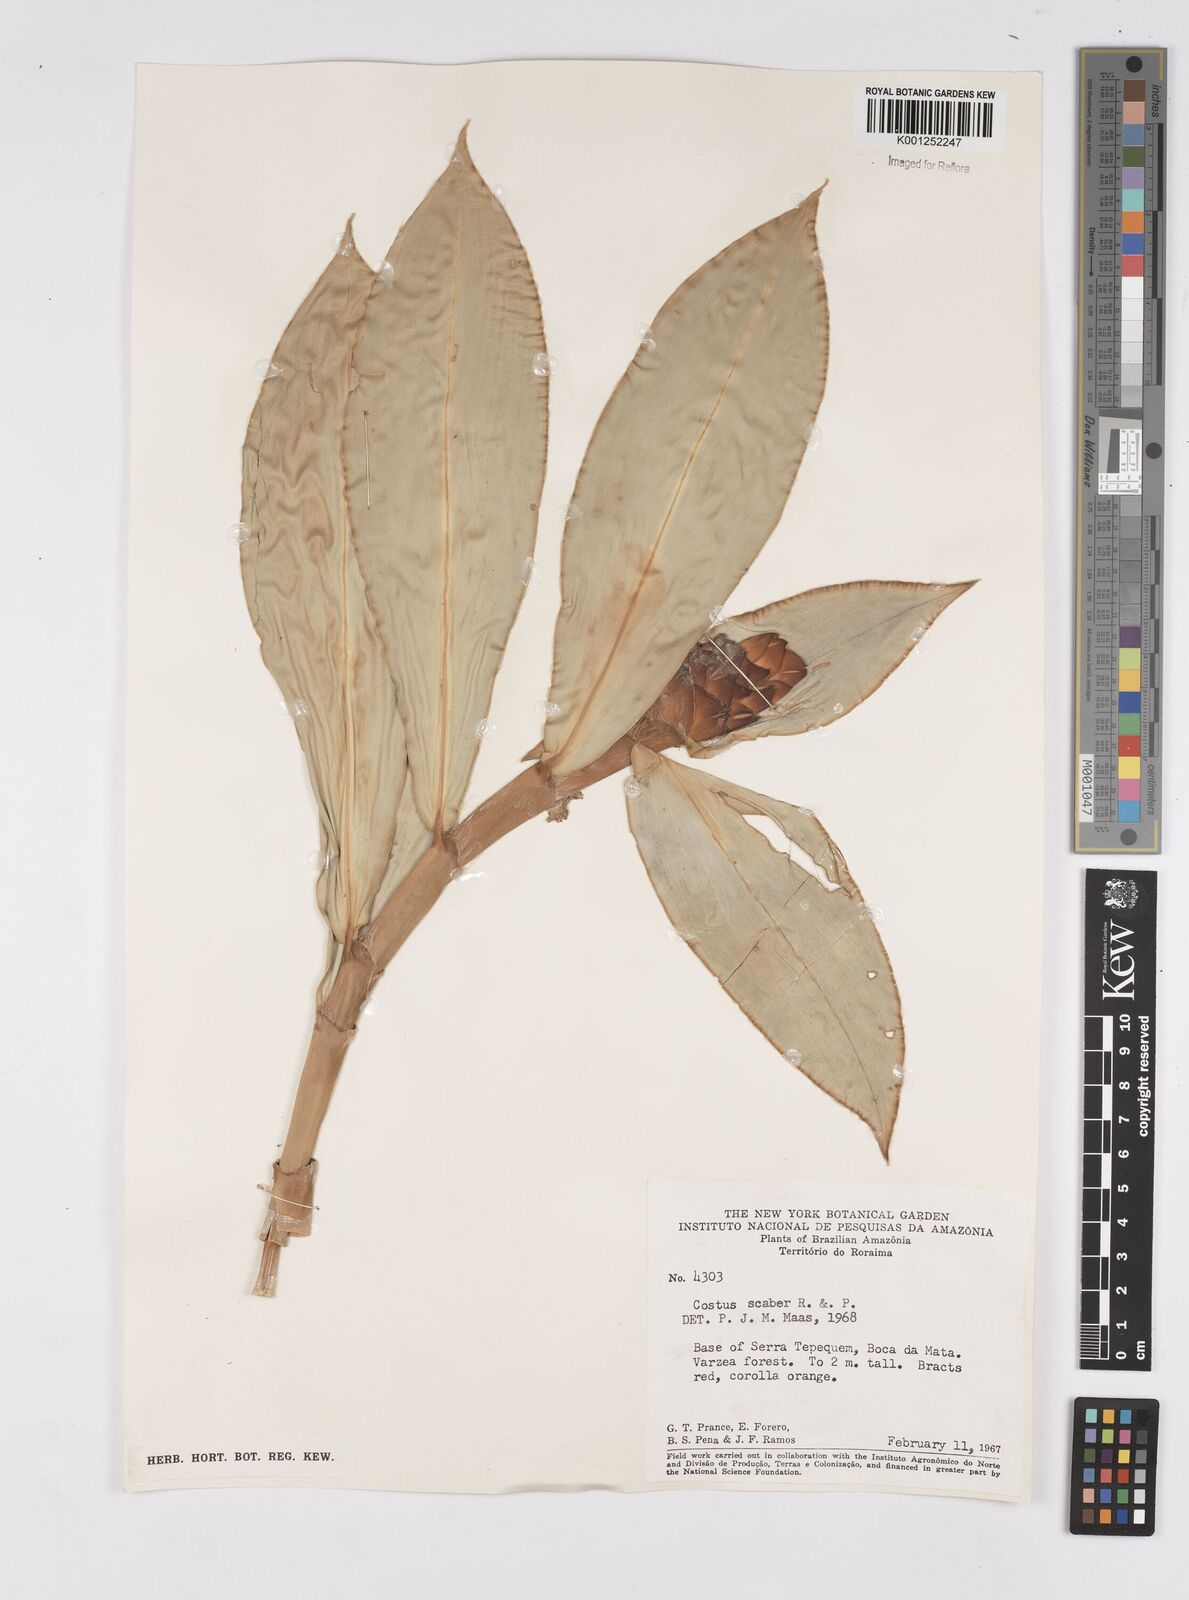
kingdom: Plantae
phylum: Tracheophyta
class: Liliopsida
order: Zingiberales
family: Costaceae
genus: Costus
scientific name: Costus scaber
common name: Spiral head ginger
